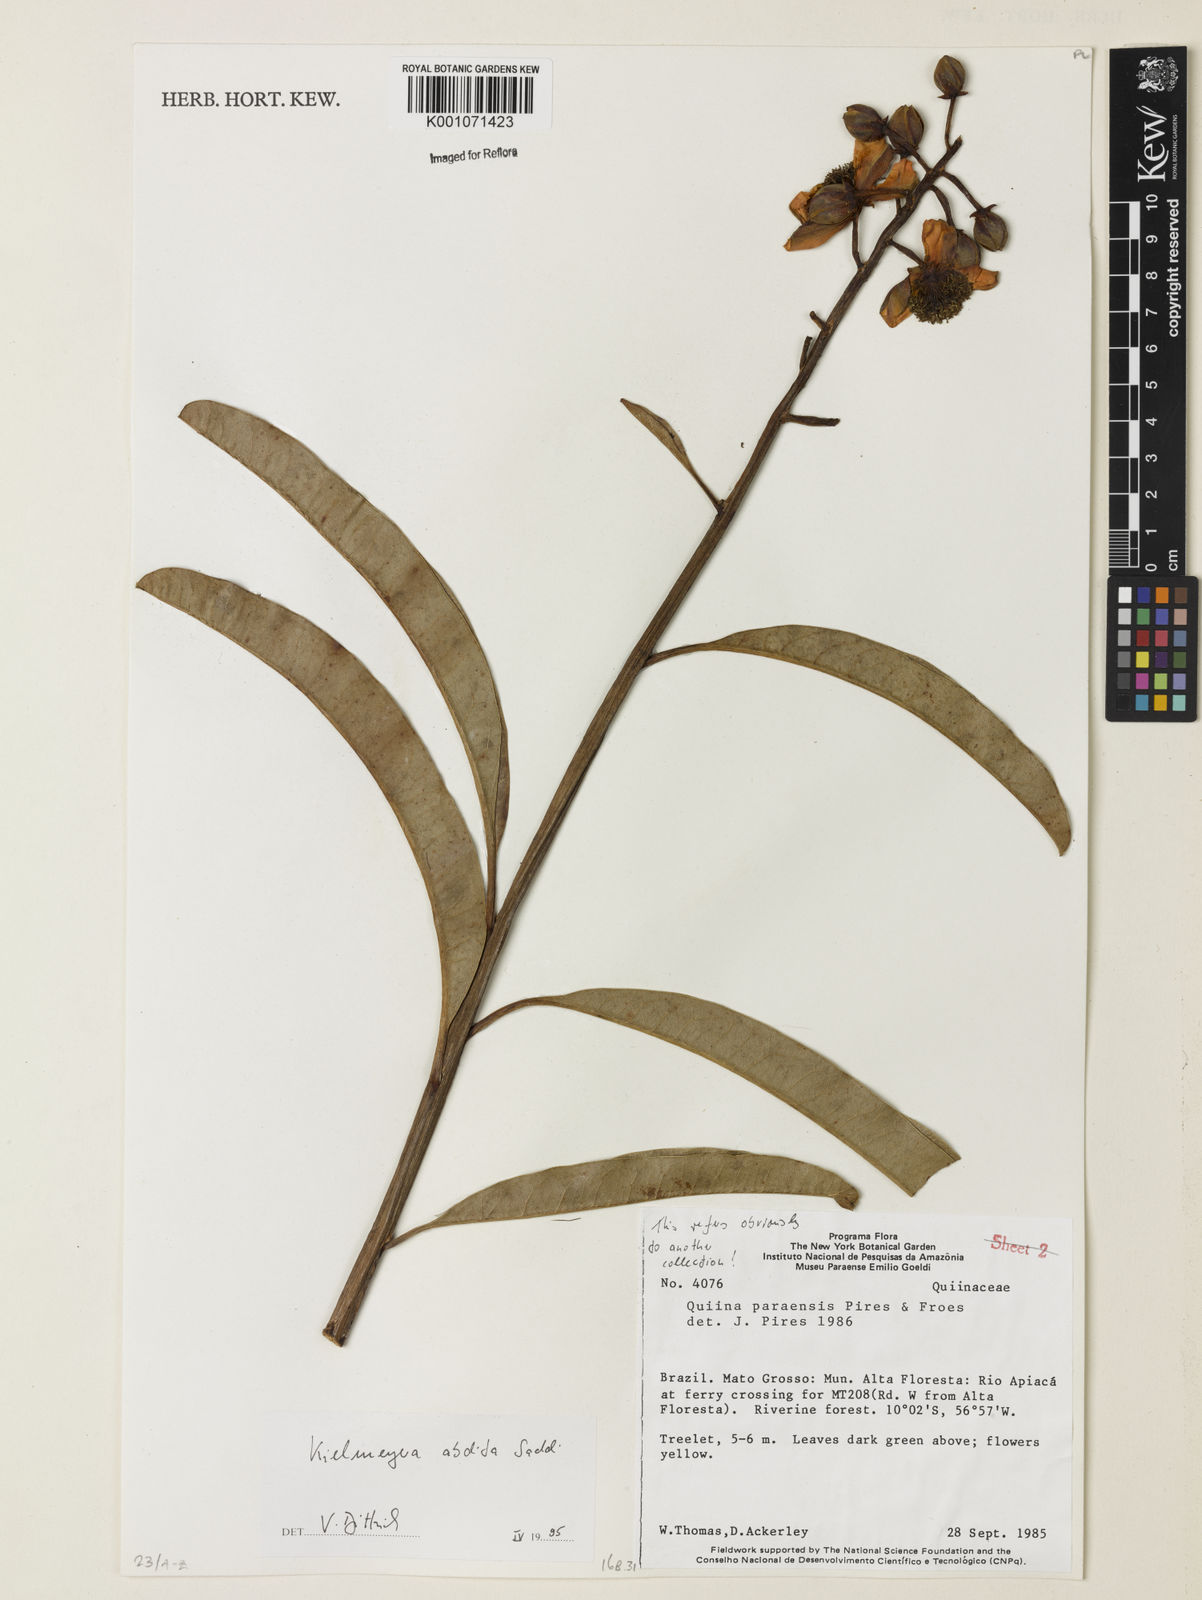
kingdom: Plantae
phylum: Tracheophyta
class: Magnoliopsida
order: Malpighiales
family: Calophyllaceae
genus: Kielmeyera
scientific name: Kielmeyera abdita
